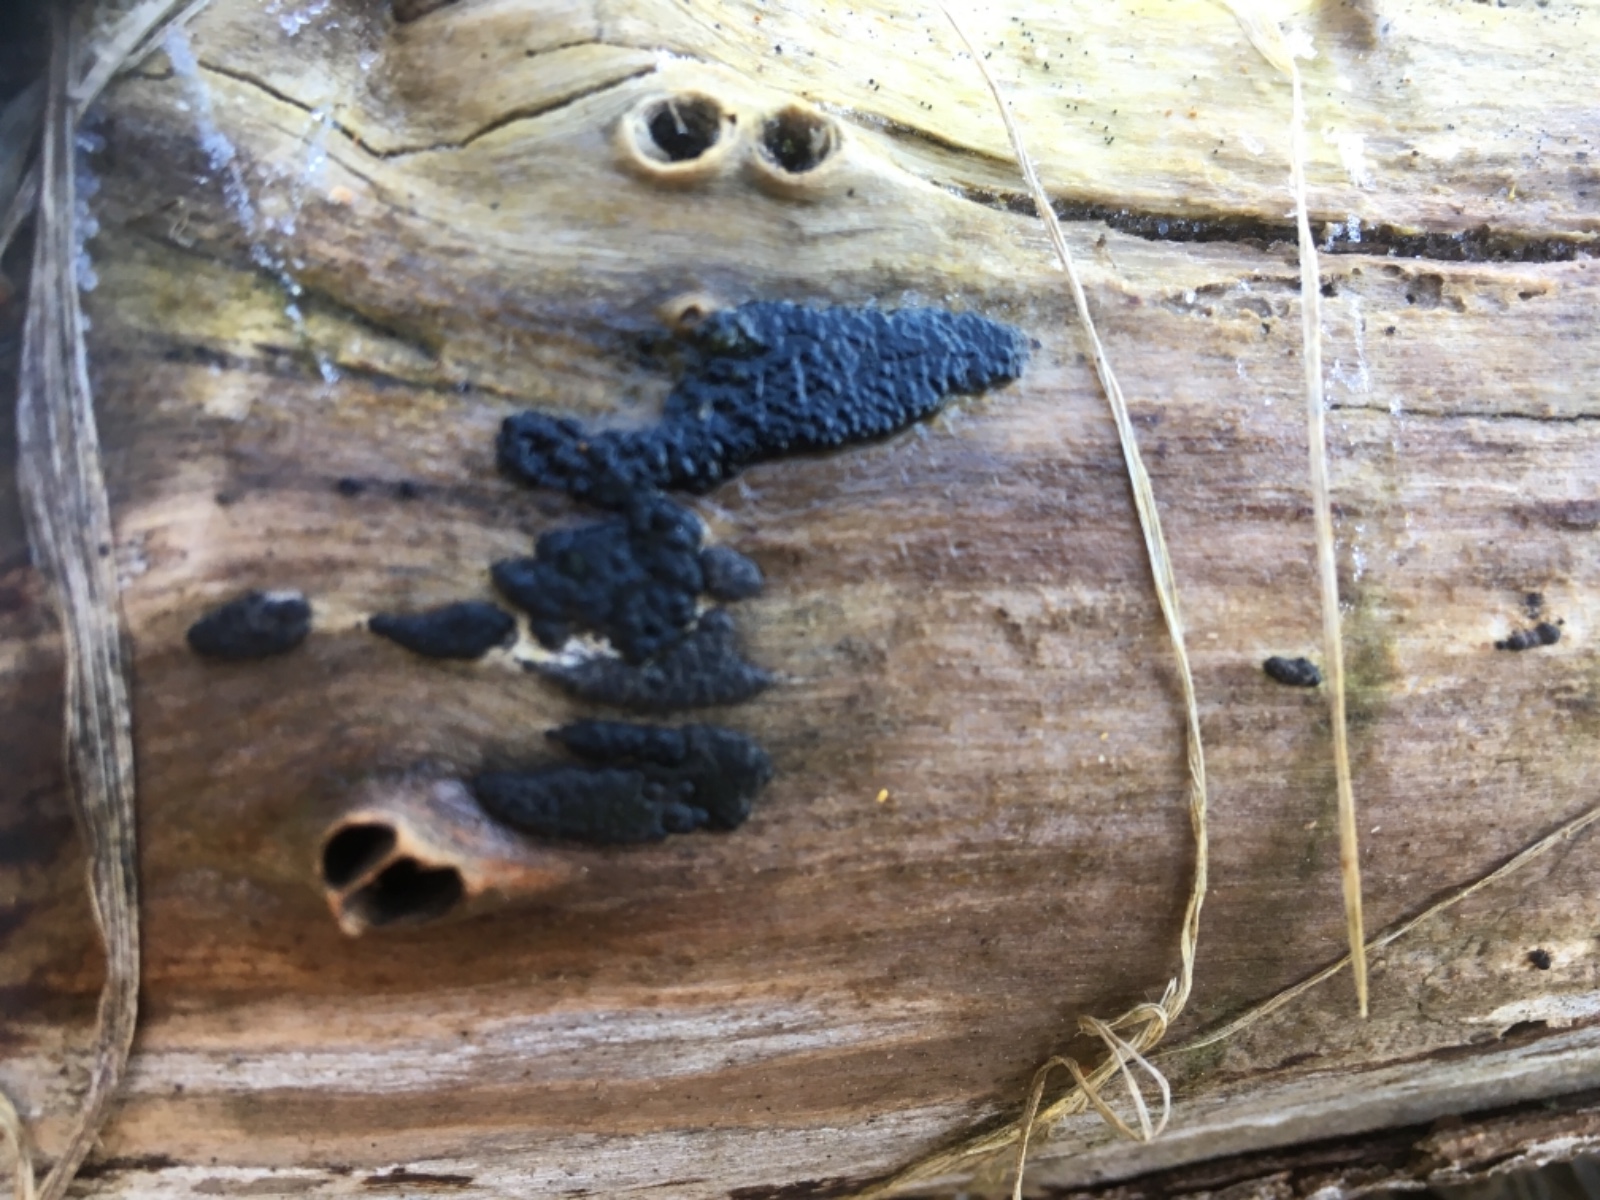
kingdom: Fungi
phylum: Ascomycota
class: Sordariomycetes
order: Xylariales
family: Xylariaceae
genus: Nemania
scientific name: Nemania
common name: kuldyne
